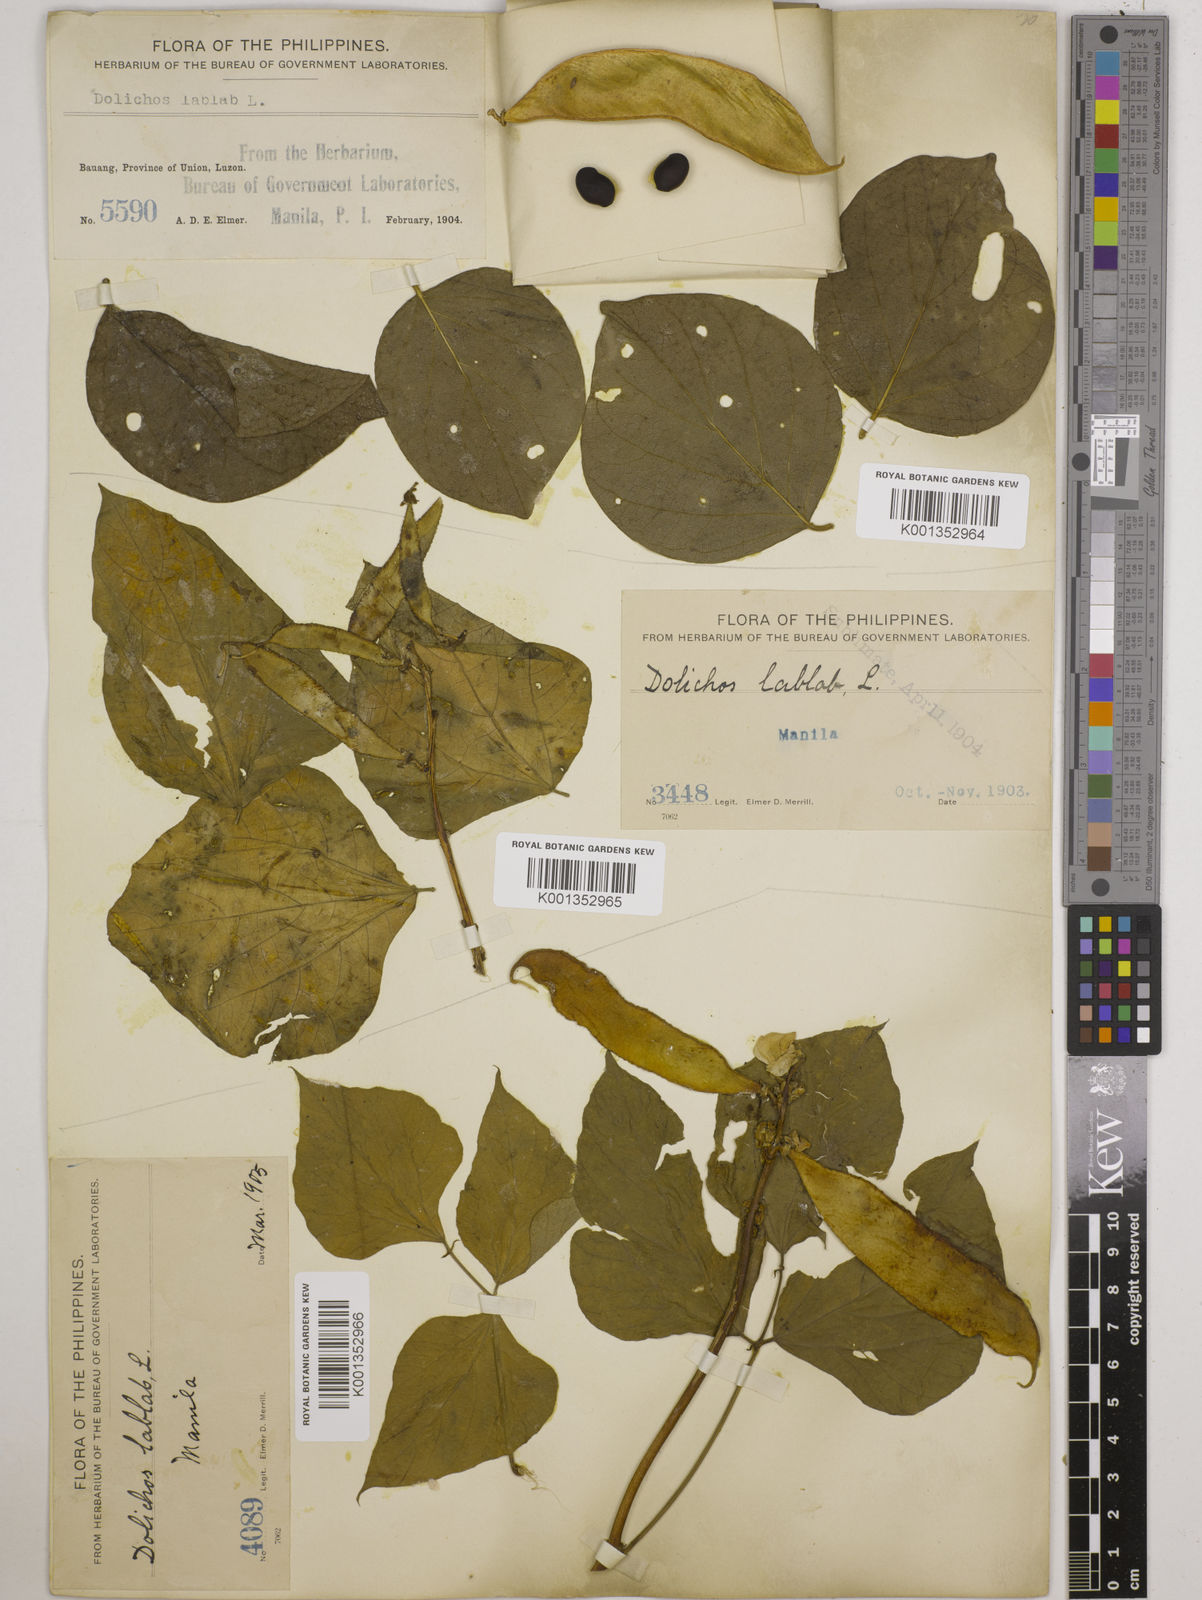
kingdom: Plantae
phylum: Tracheophyta
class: Magnoliopsida
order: Fabales
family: Fabaceae
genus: Lablab
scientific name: Lablab purpureus
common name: Lablab-bean
